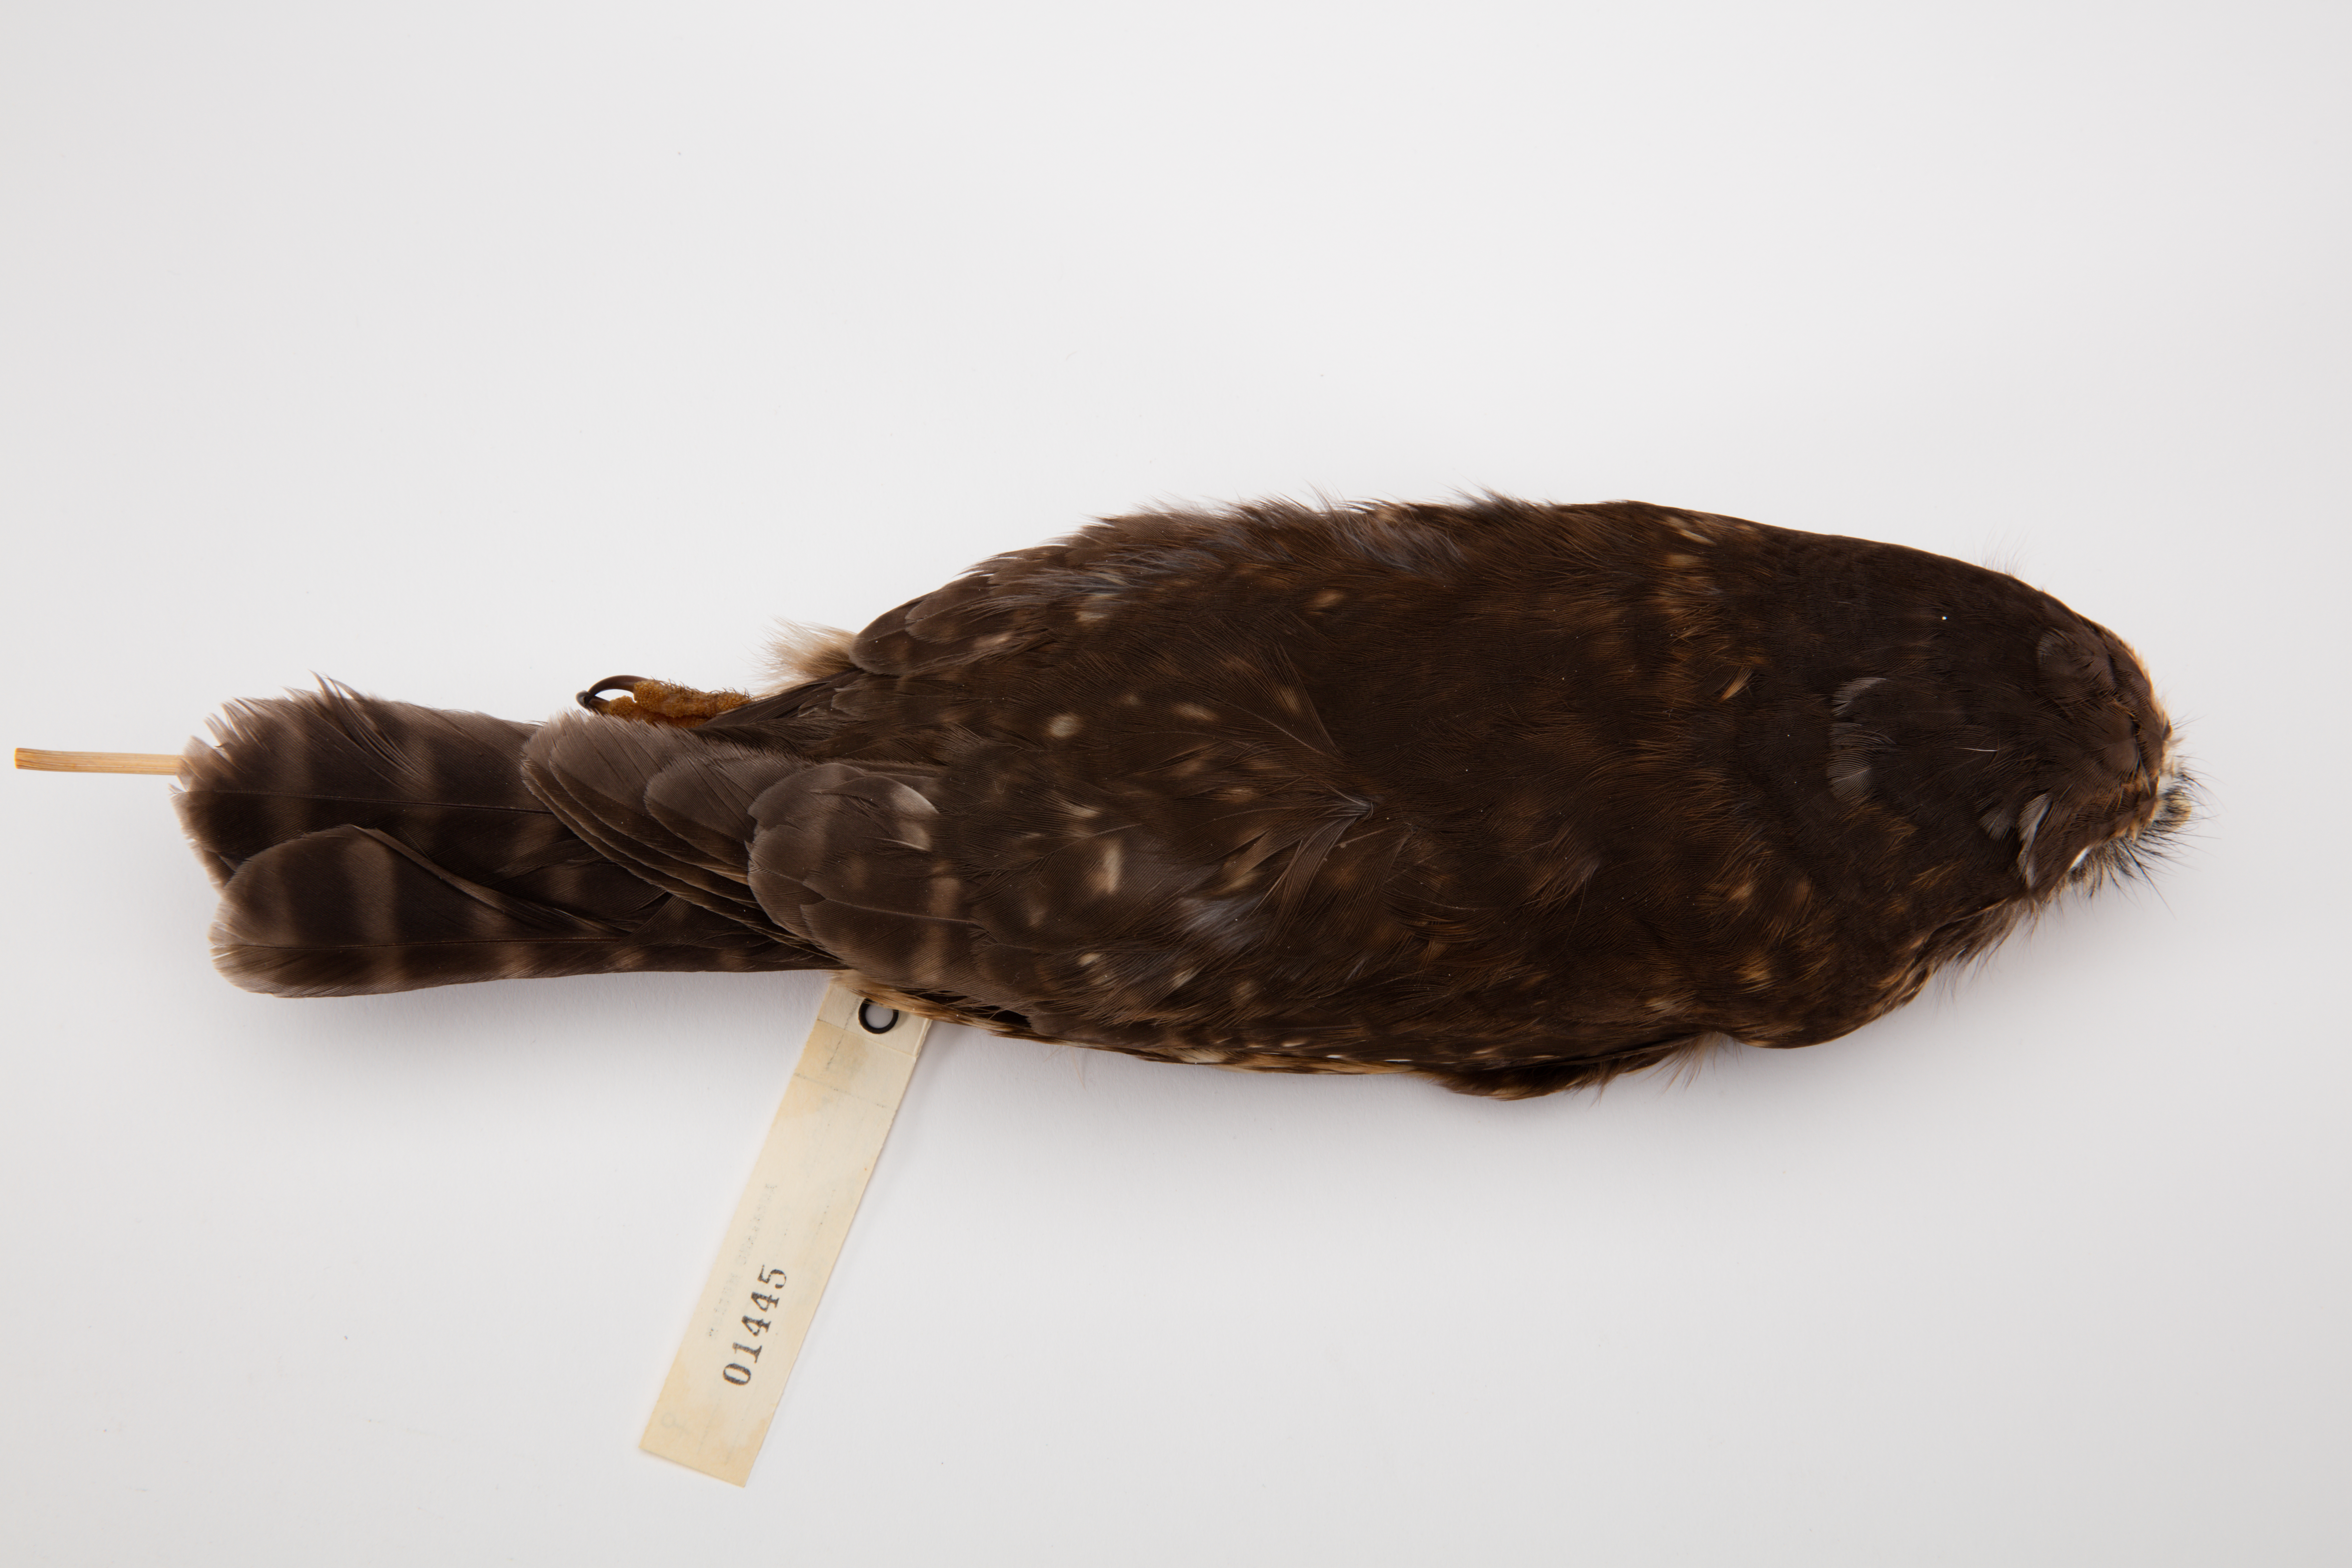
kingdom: Animalia
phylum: Chordata
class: Aves
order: Strigiformes
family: Strigidae
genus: Ninox
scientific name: Ninox novaeseelandiae
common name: Morepork
